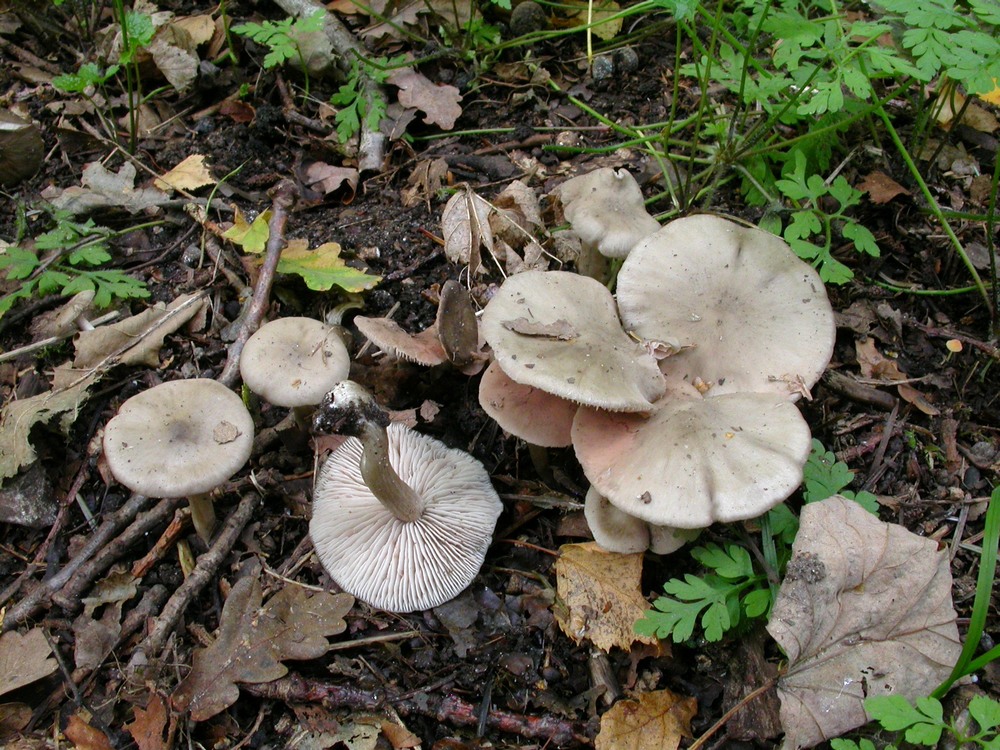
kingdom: Fungi
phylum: Basidiomycota
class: Agaricomycetes
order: Agaricales
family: Entolomataceae
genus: Entoloma
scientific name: Entoloma rhodopolium
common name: skov-rødblad
